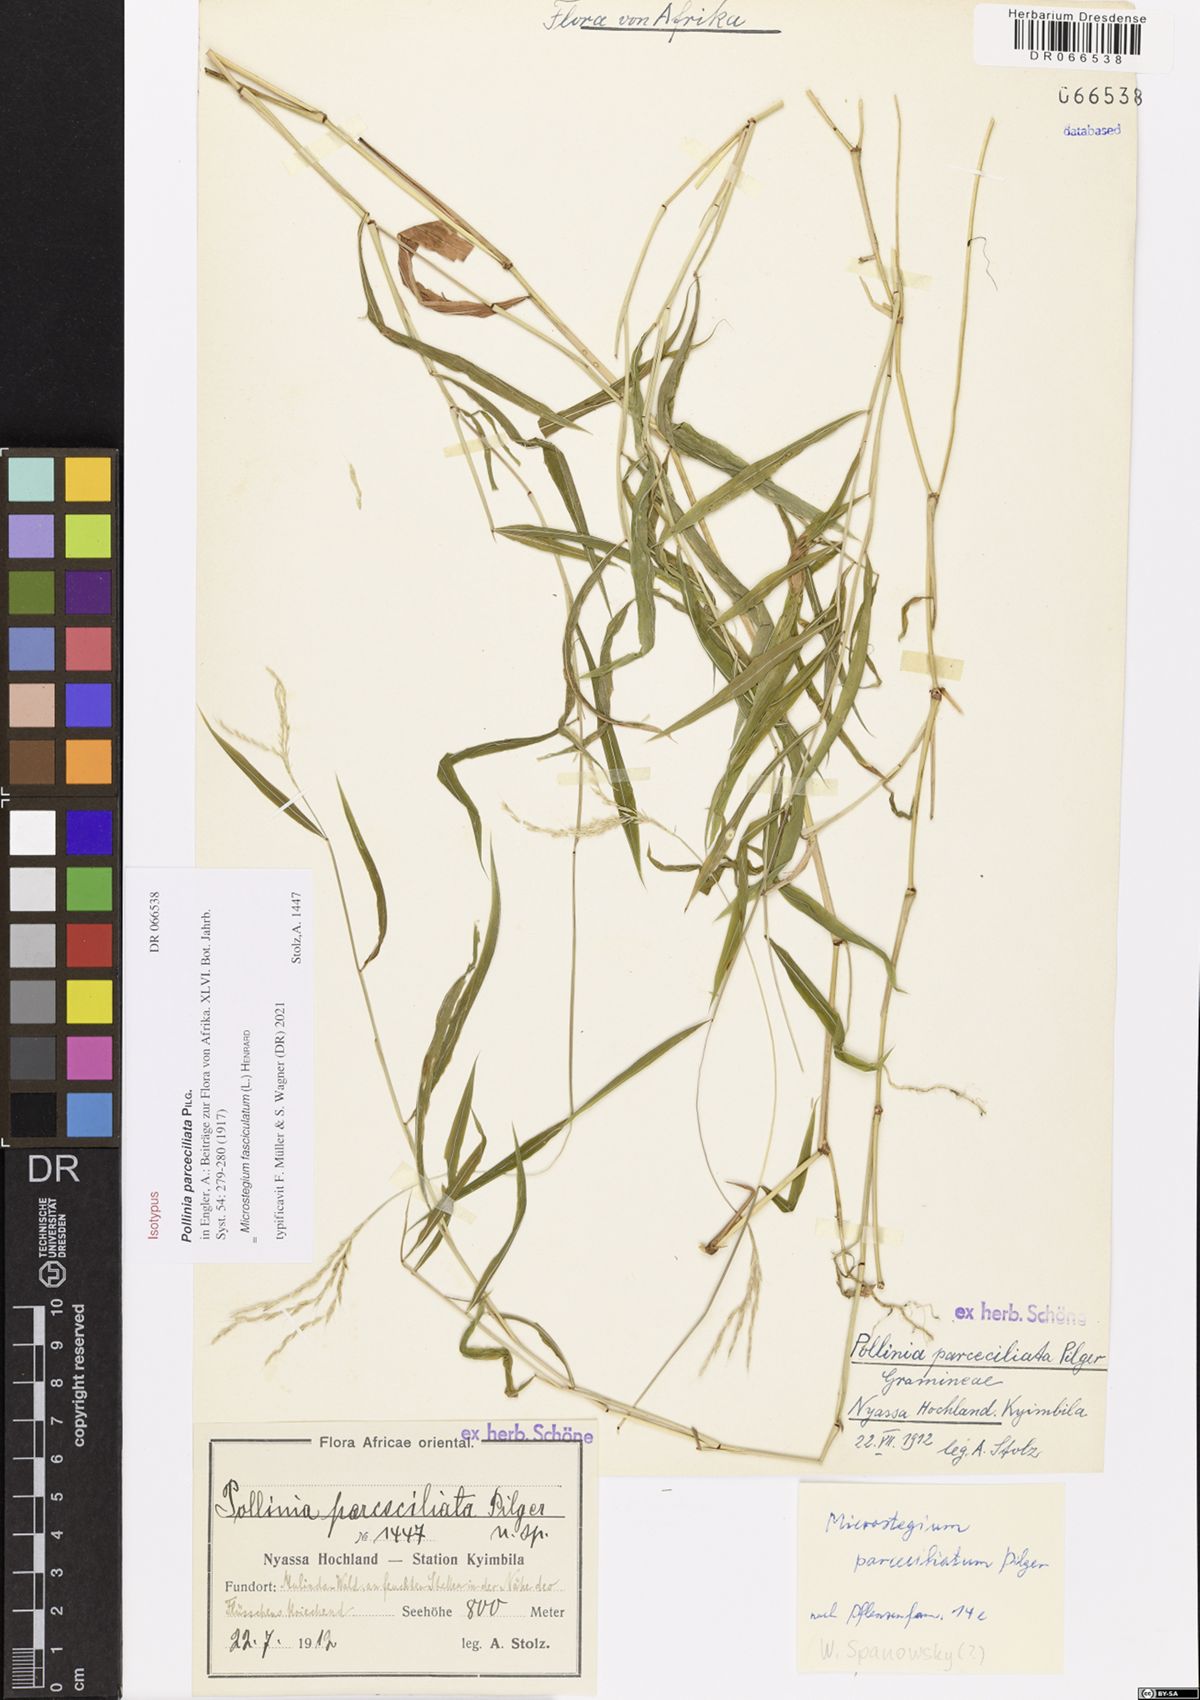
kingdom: Plantae
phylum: Tracheophyta
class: Liliopsida
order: Poales
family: Poaceae
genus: Microstegium
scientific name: Microstegium fasciculatum
